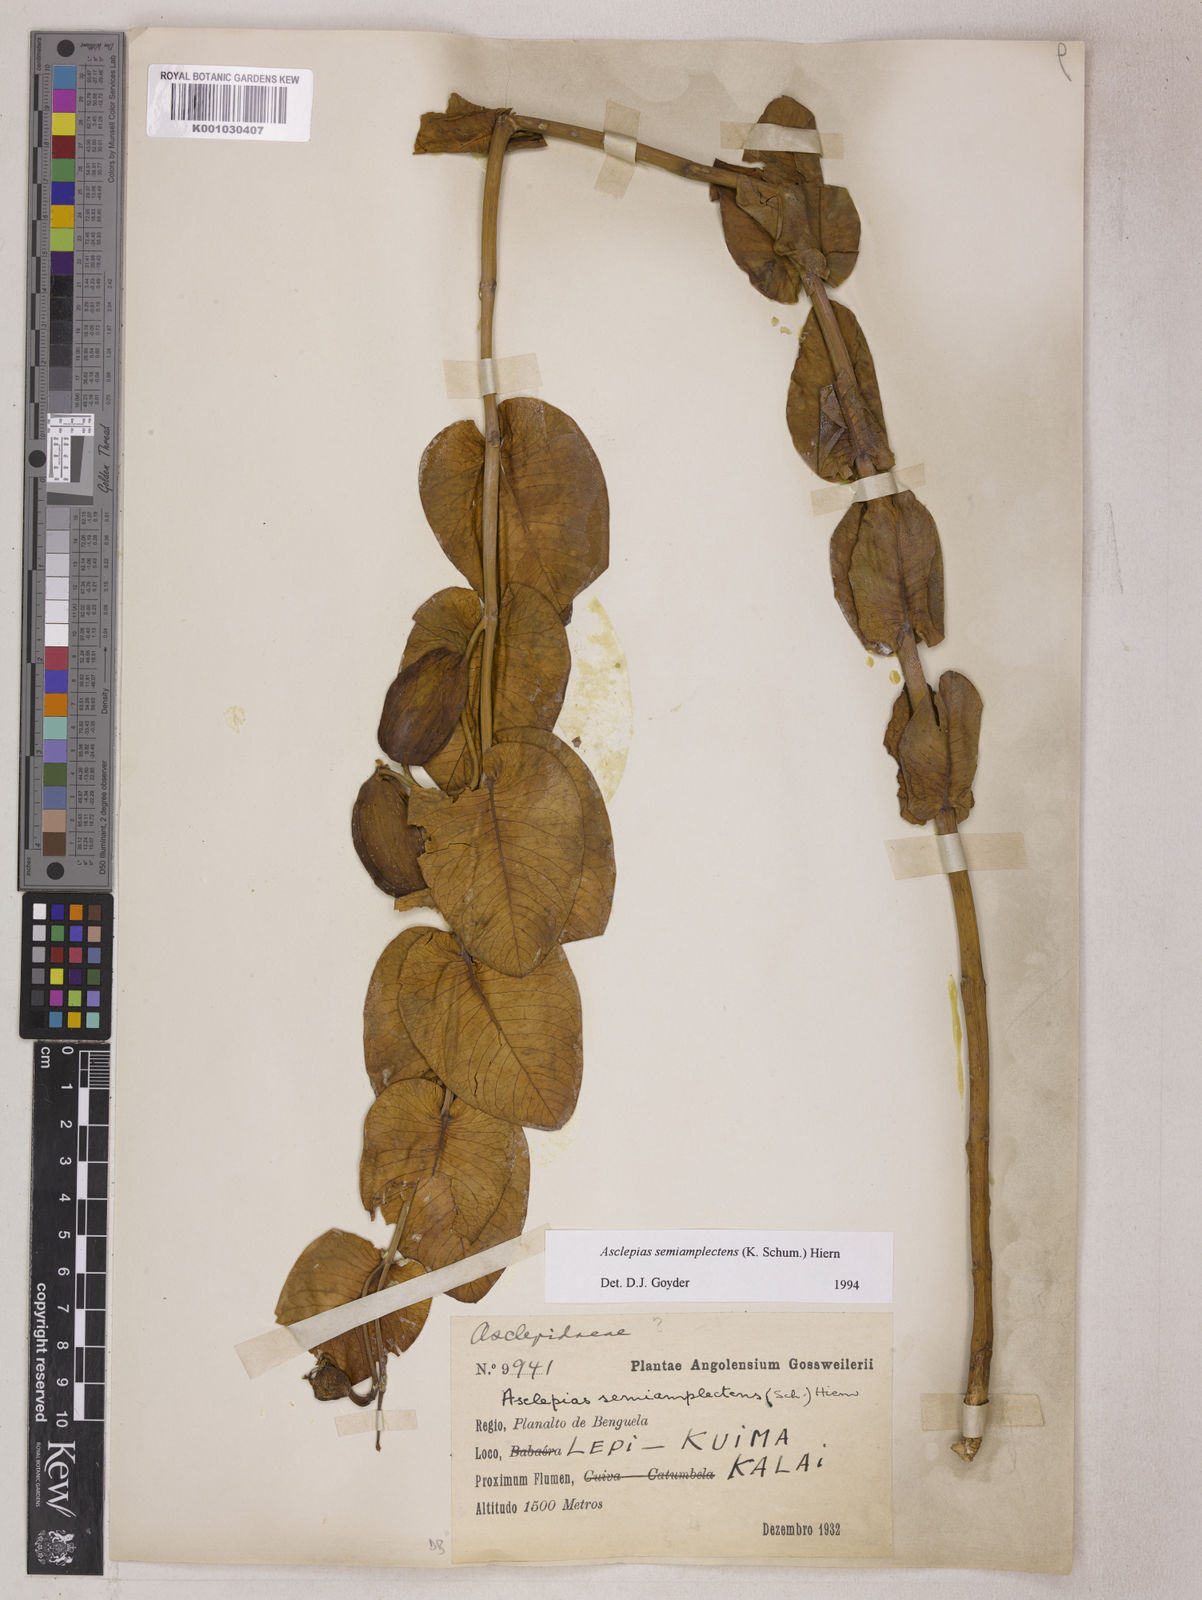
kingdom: Plantae
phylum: Tracheophyta
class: Magnoliopsida
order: Gentianales
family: Apocynaceae
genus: Gomphocarpus
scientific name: Gomphocarpus semiamplectens
